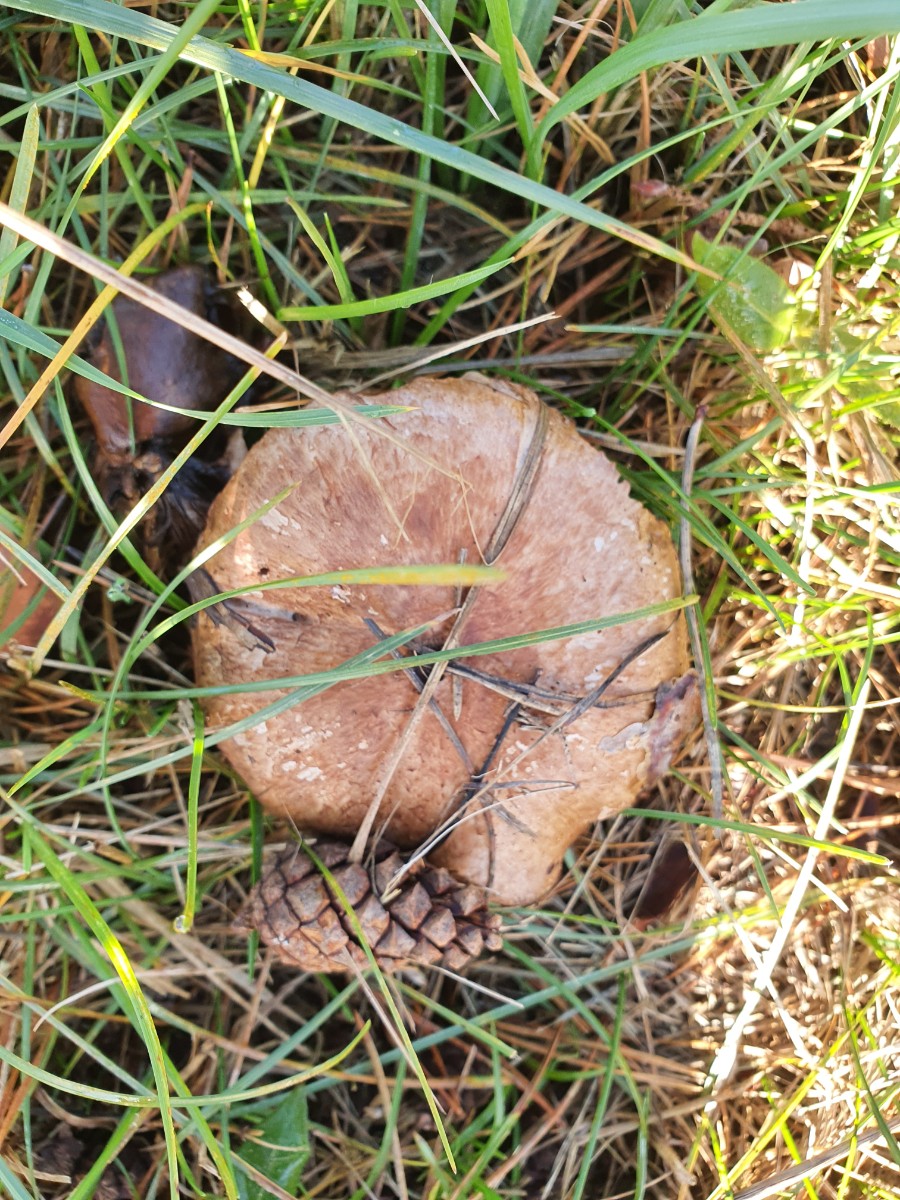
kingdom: Fungi
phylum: Basidiomycota
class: Agaricomycetes
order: Agaricales
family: Agaricaceae
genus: Agaricus
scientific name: Agaricus
